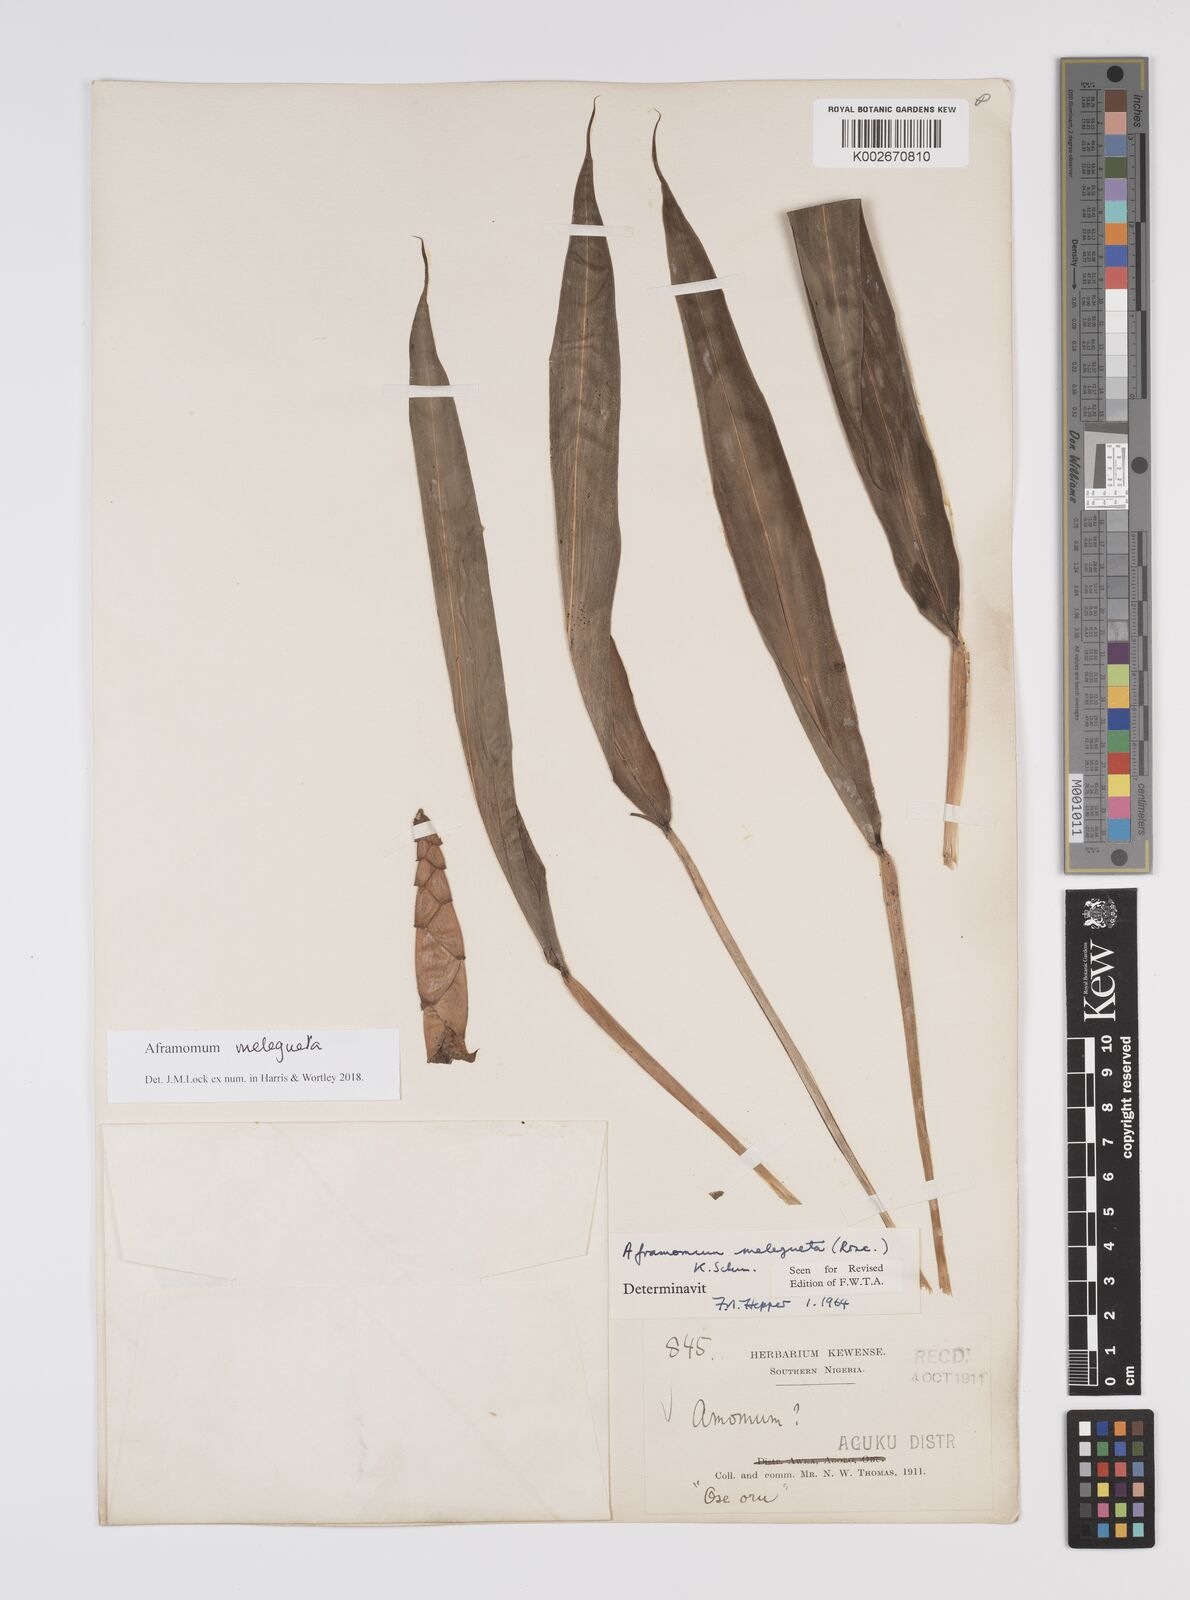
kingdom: Plantae
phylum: Tracheophyta
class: Liliopsida
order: Zingiberales
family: Zingiberaceae
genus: Aframomum
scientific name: Aframomum melegueta
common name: Grains of paradise
